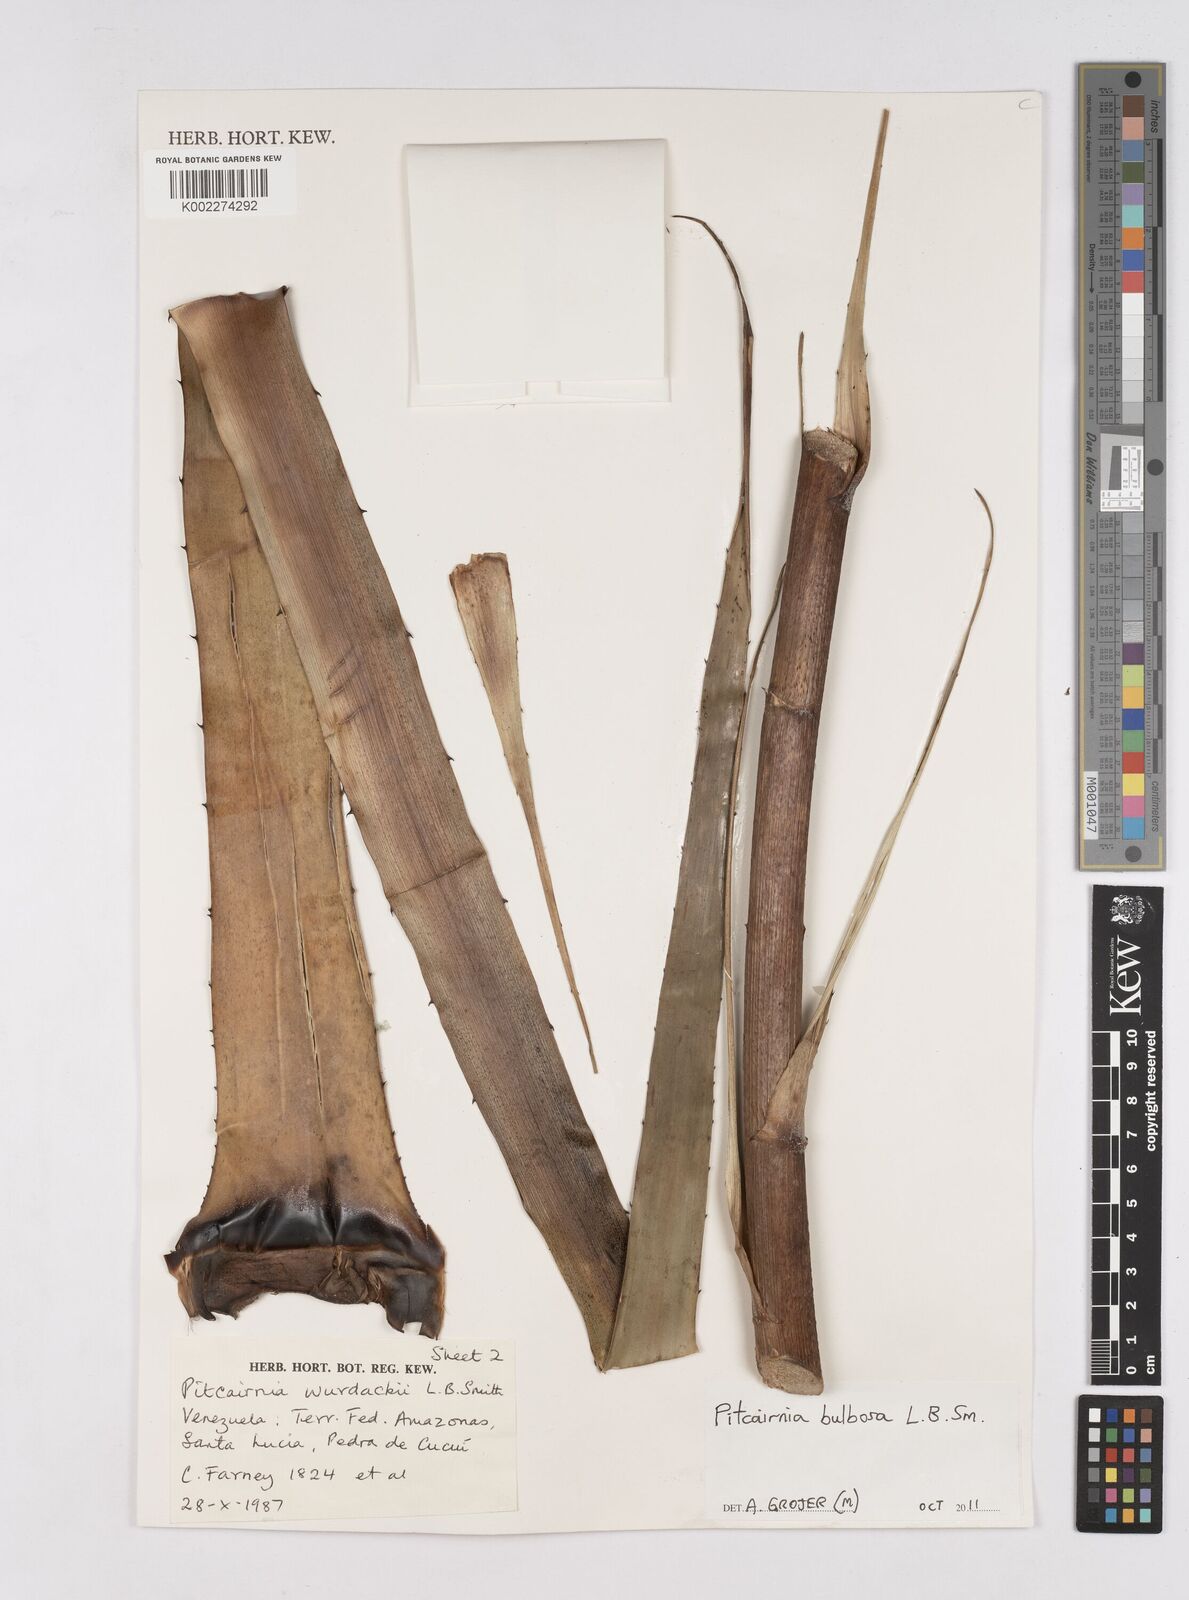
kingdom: Plantae
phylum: Tracheophyta
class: Liliopsida
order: Poales
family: Bromeliaceae
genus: Pitcairnia
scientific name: Pitcairnia bulbosa
